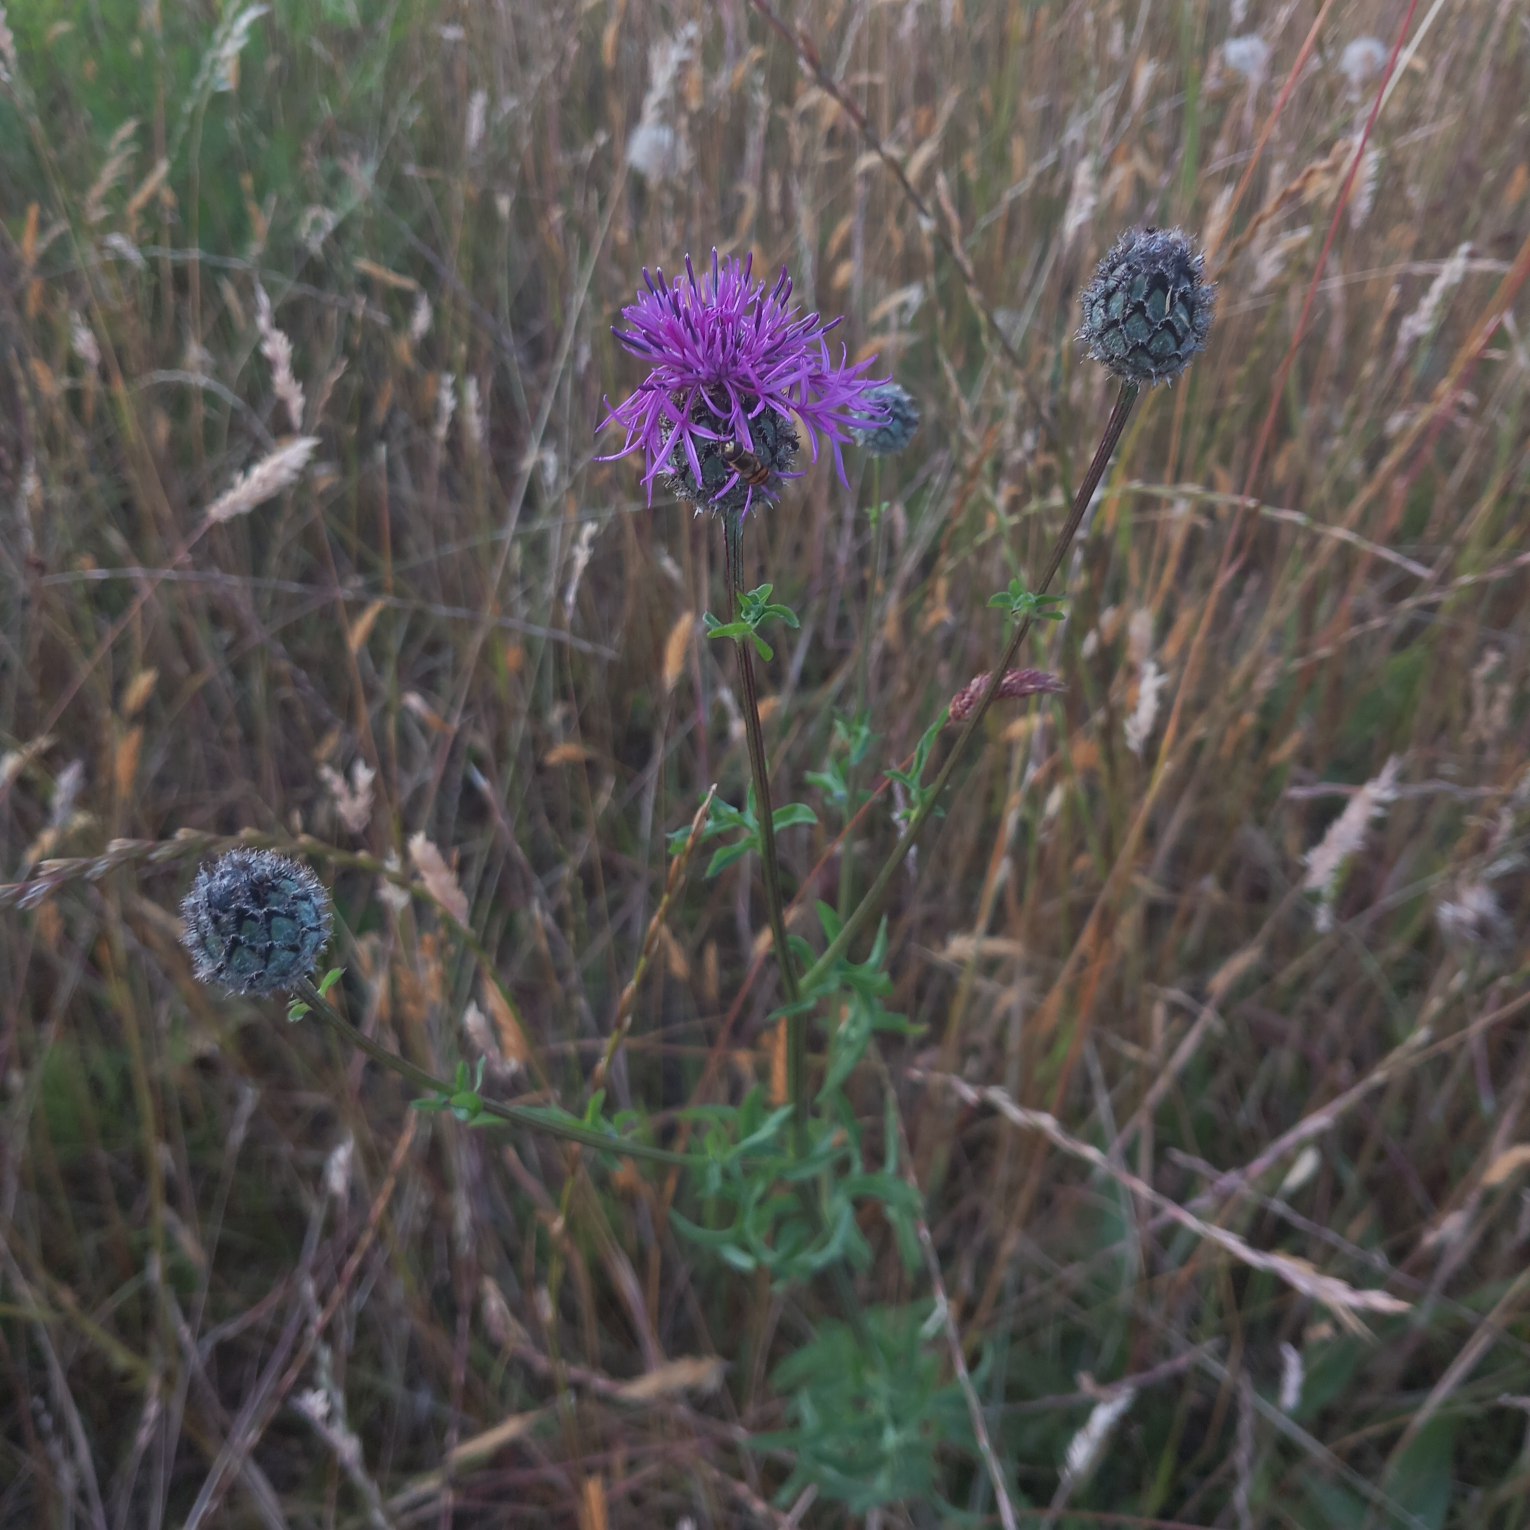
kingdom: Plantae
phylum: Tracheophyta
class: Magnoliopsida
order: Asterales
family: Asteraceae
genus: Centaurea
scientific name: Centaurea scabiosa
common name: Stor knopurt
